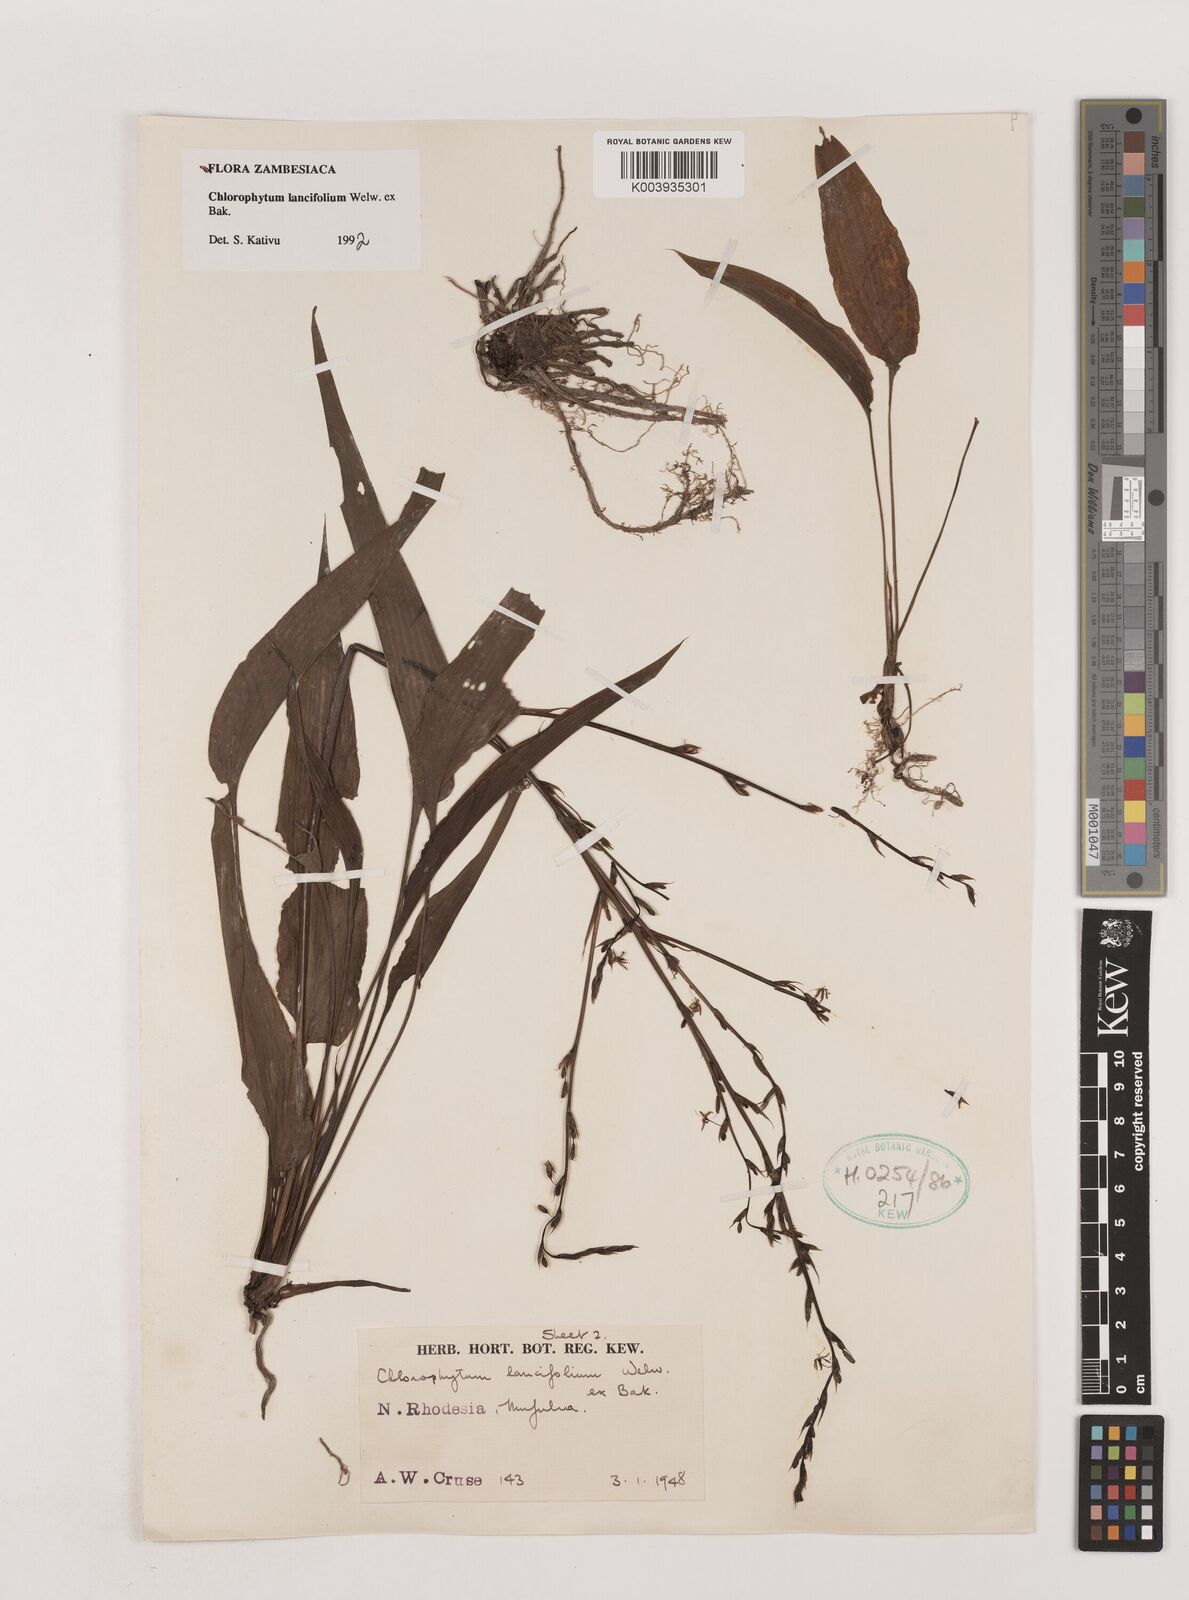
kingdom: Plantae
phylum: Tracheophyta
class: Liliopsida
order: Asparagales
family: Asparagaceae
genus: Chlorophytum
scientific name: Chlorophytum lancifolium
